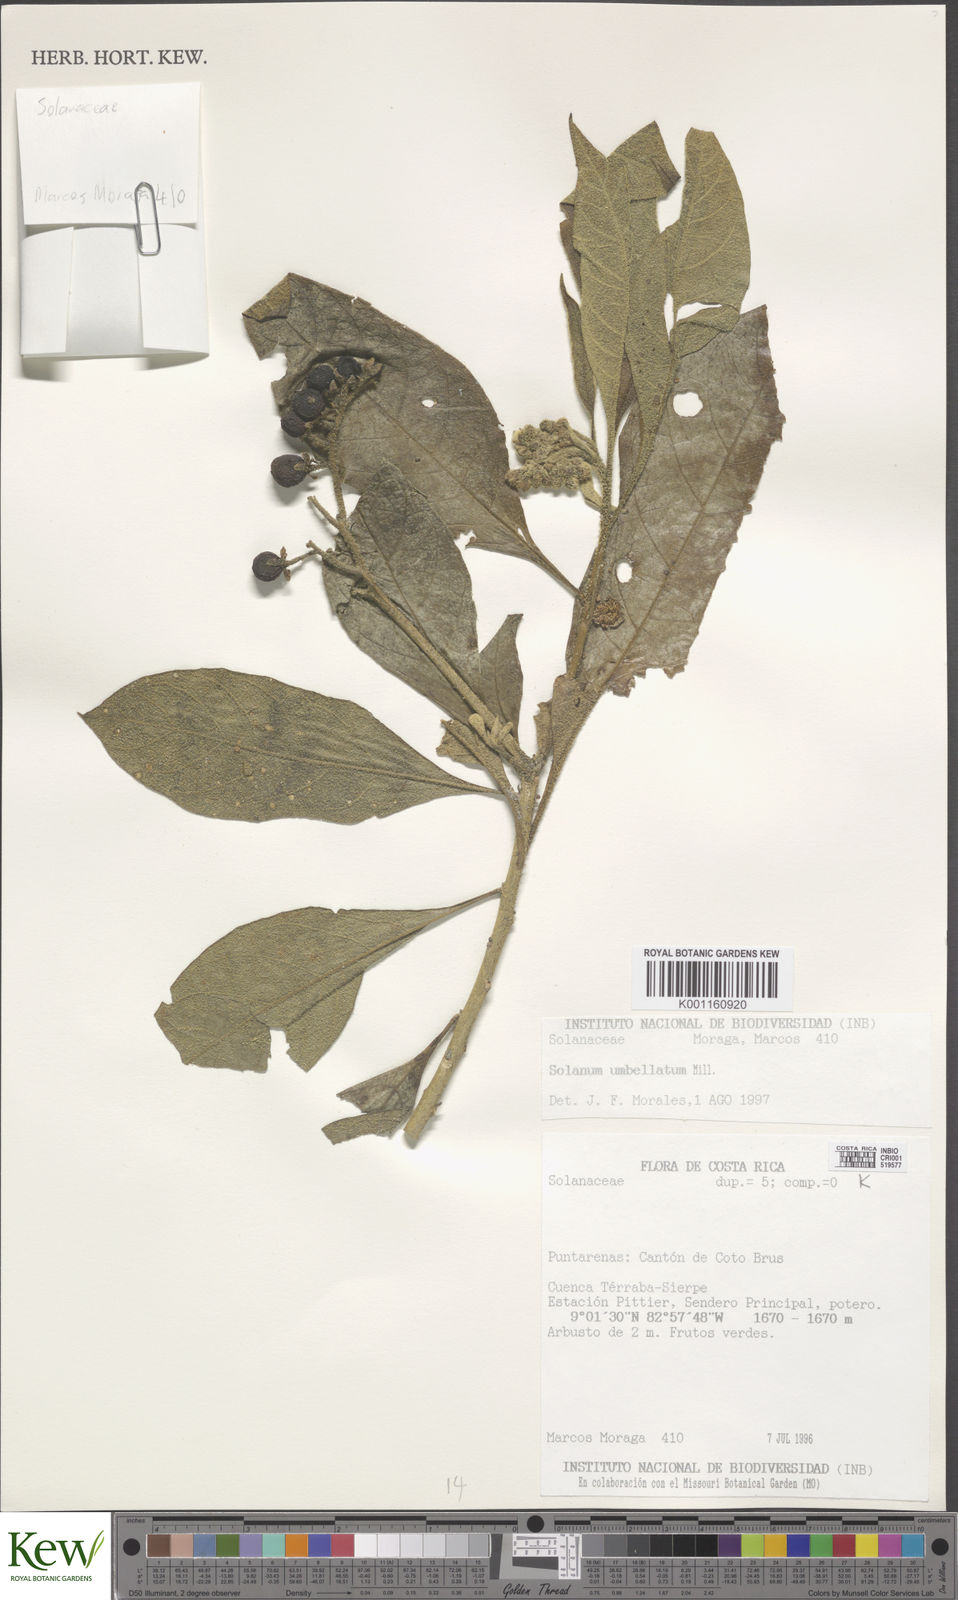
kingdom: Plantae
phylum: Tracheophyta
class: Magnoliopsida
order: Solanales
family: Solanaceae
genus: Solanum
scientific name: Solanum umbellatum
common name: Nightshade
